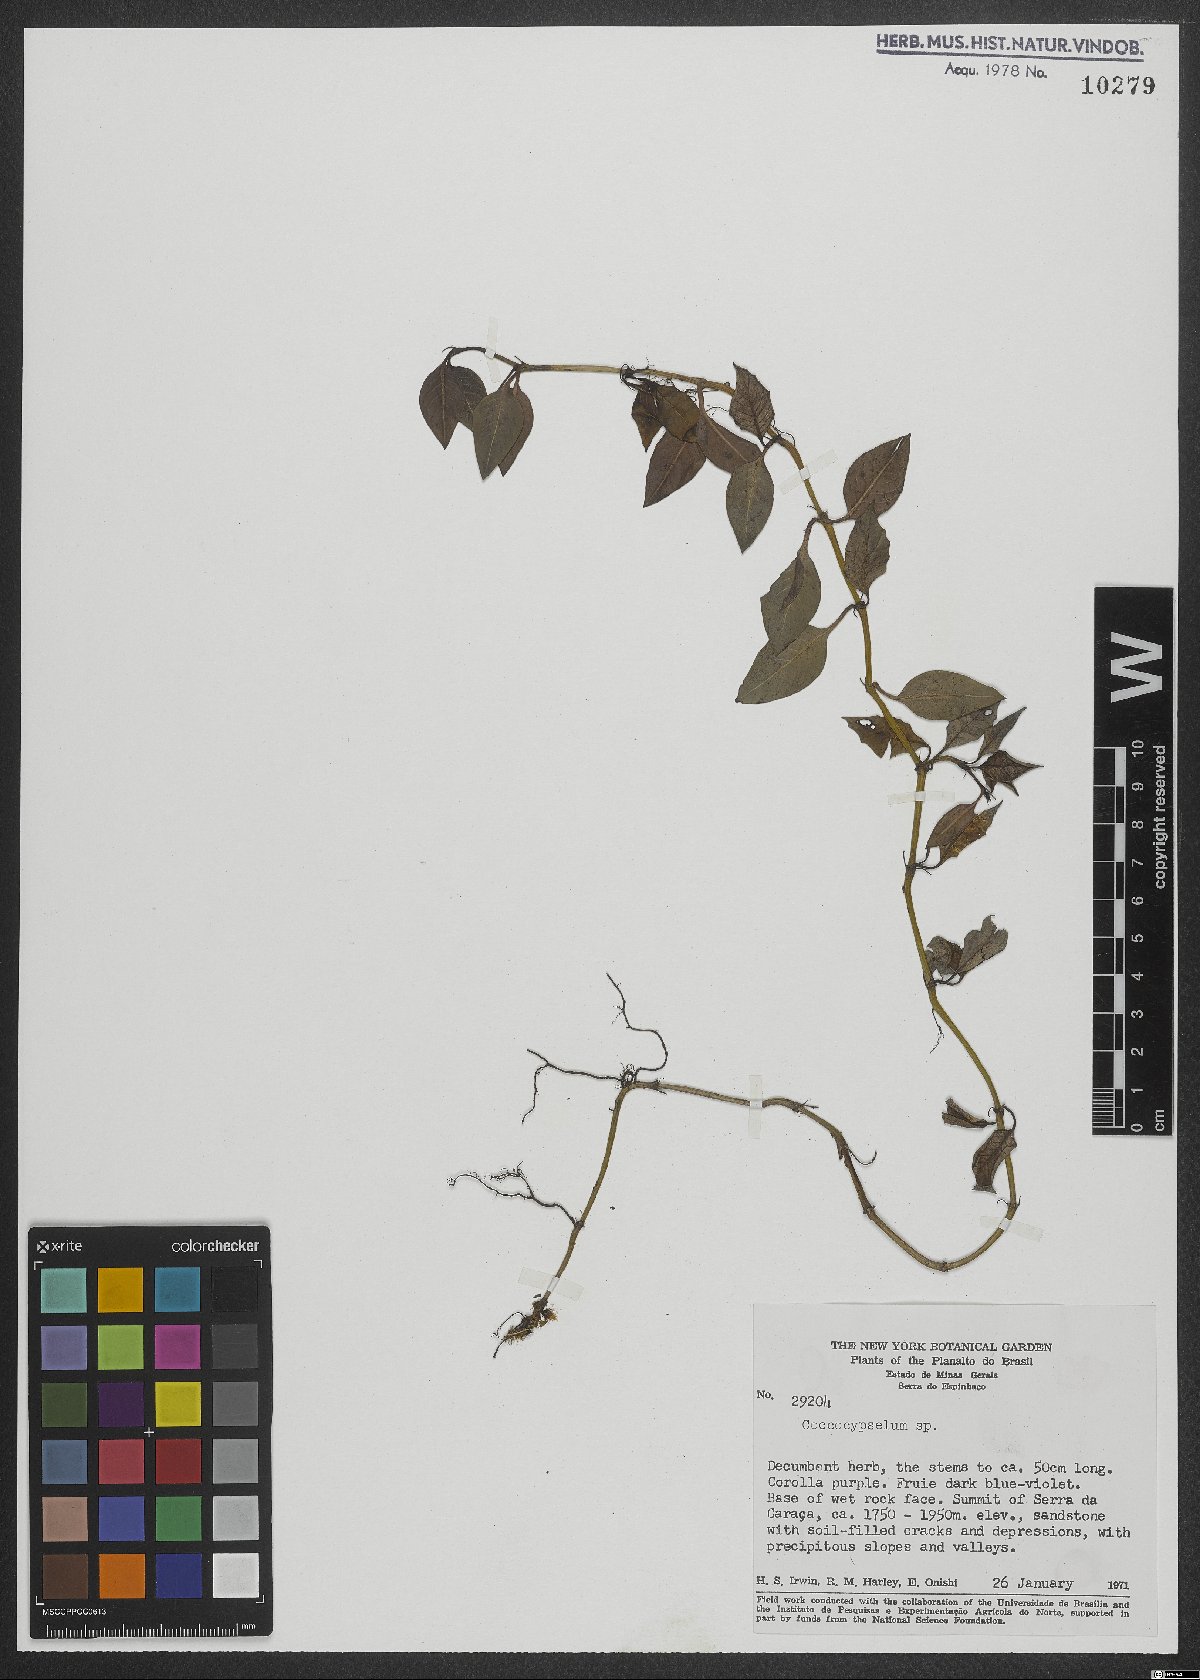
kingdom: Plantae
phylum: Tracheophyta
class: Magnoliopsida
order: Gentianales
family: Rubiaceae
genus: Coccocypselum
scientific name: Coccocypselum
